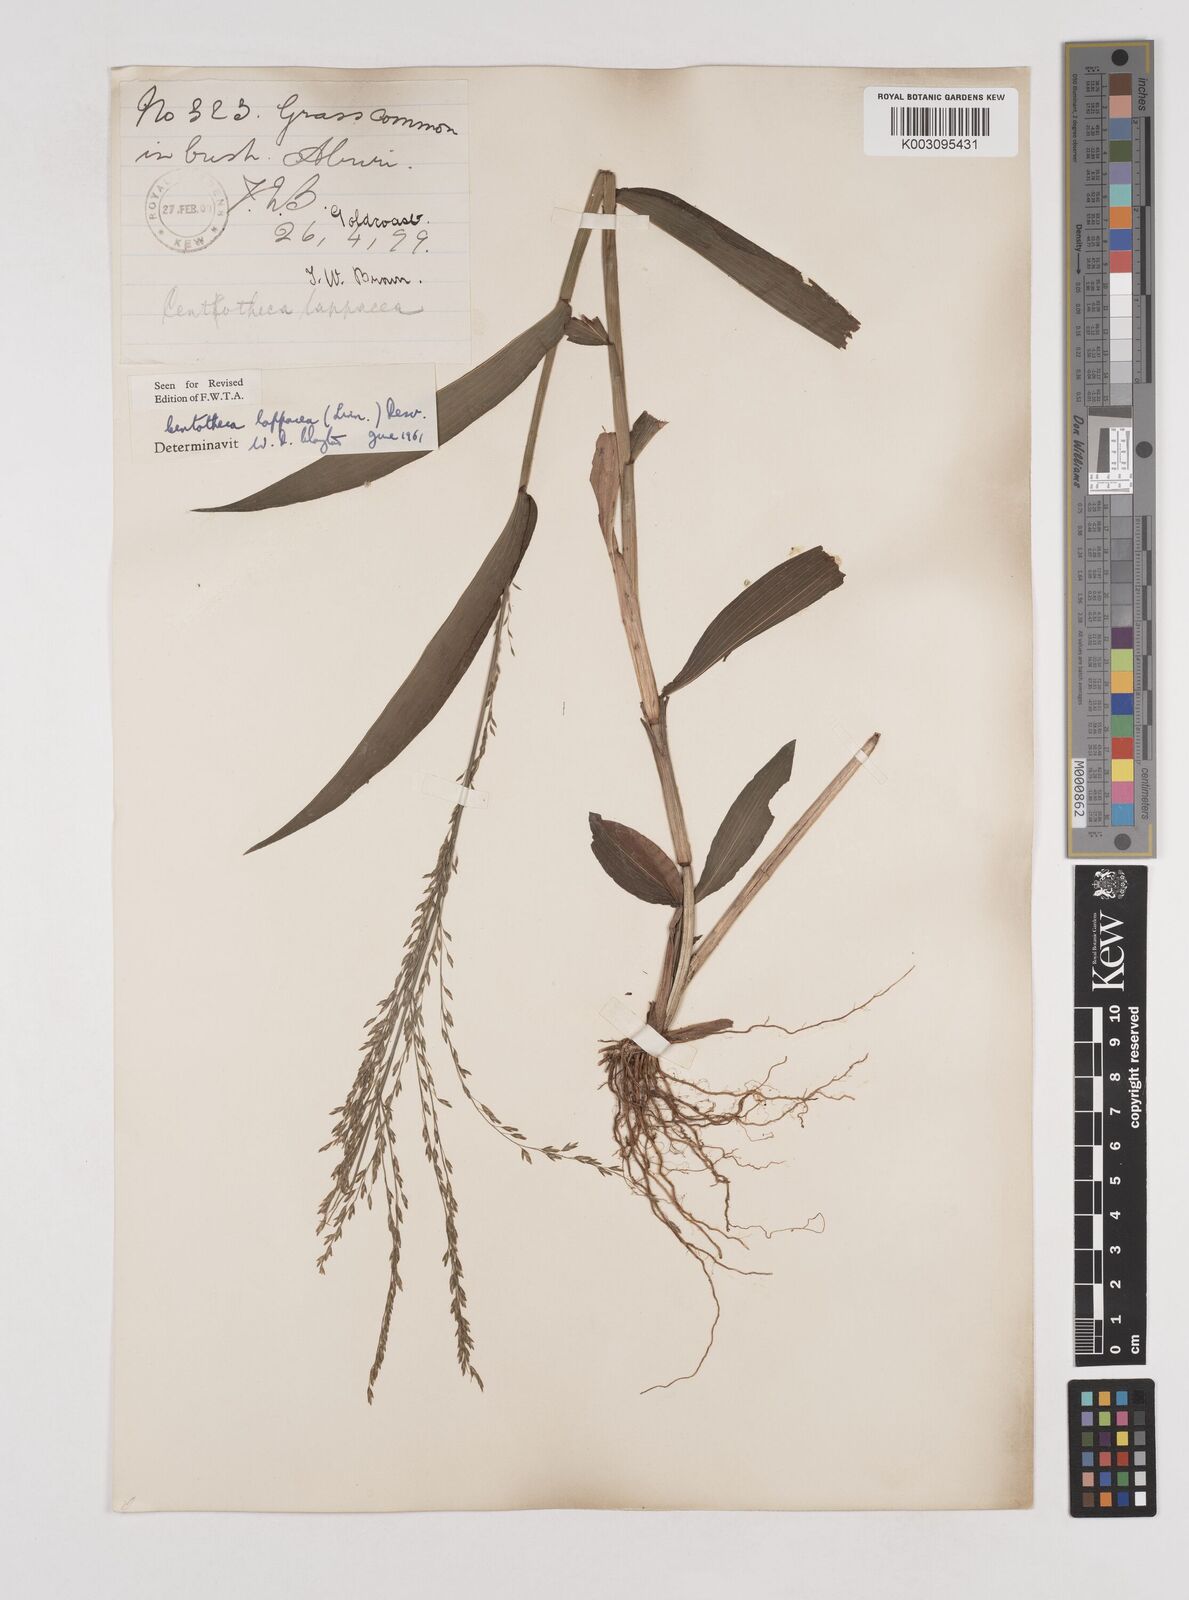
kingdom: Plantae
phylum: Tracheophyta
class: Liliopsida
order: Poales
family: Poaceae
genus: Centotheca
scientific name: Centotheca lappacea
